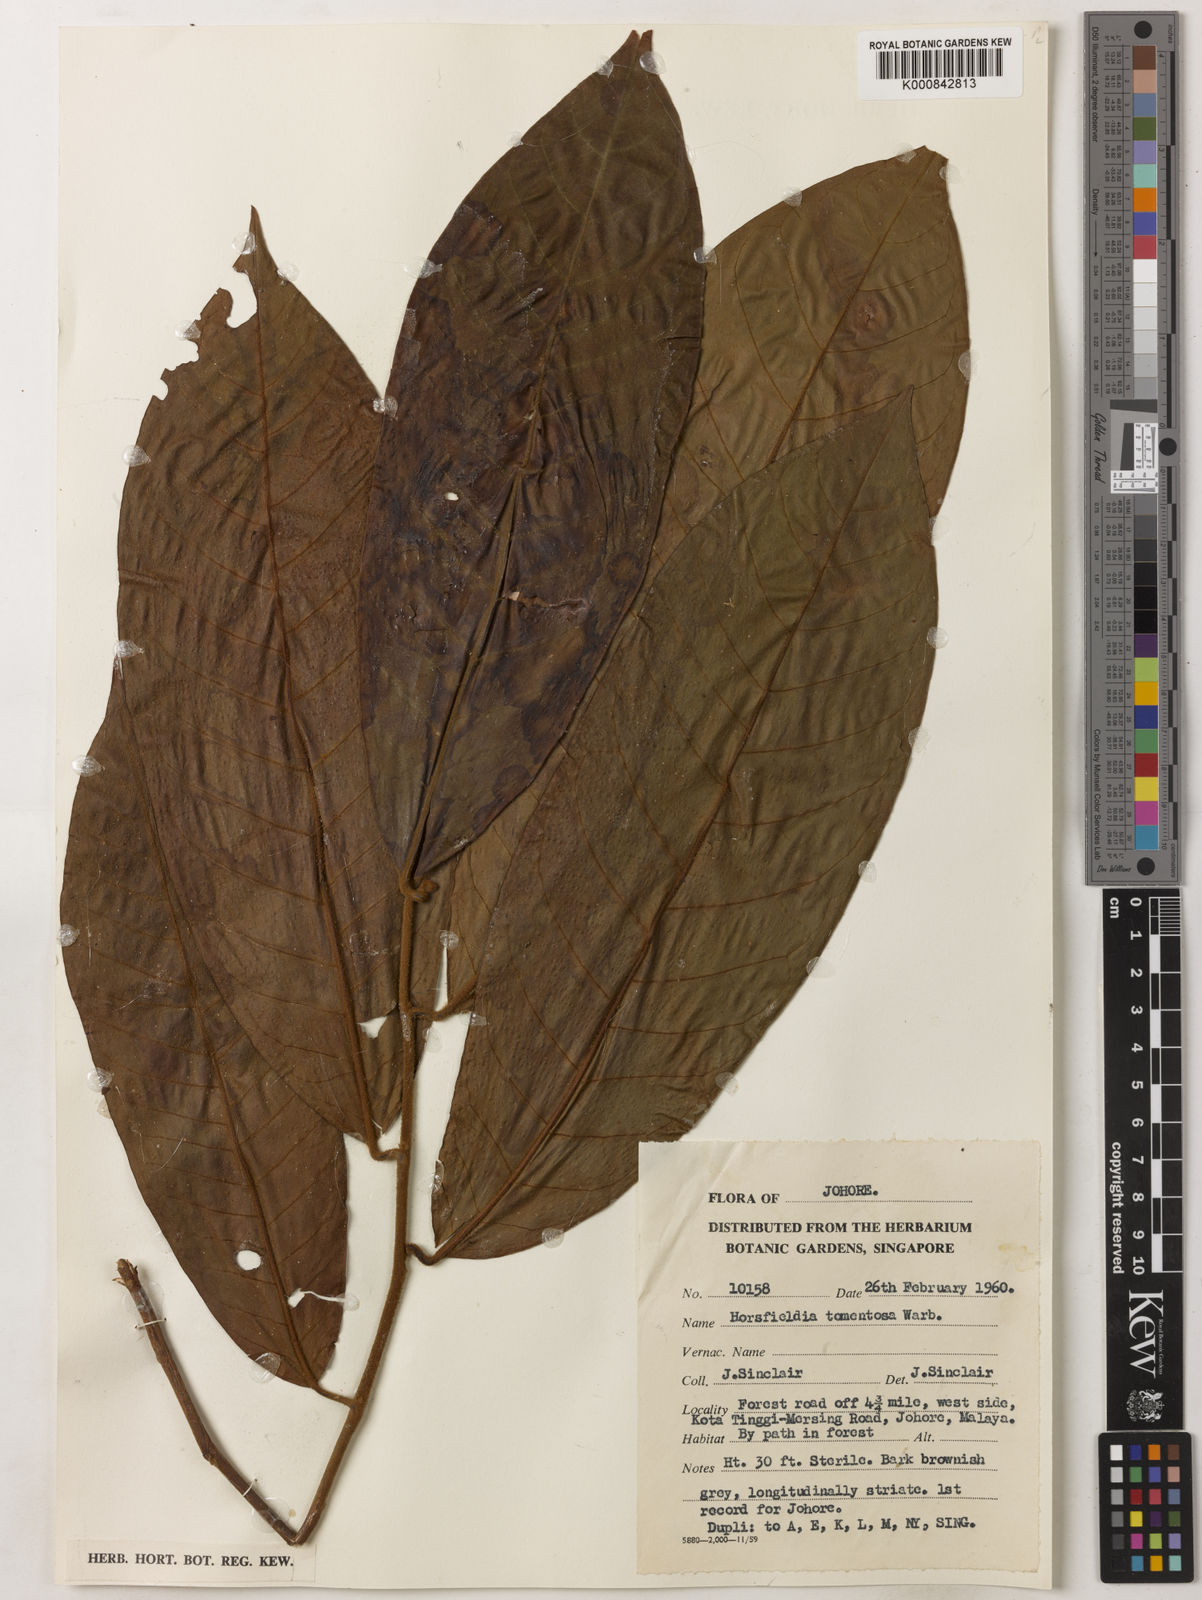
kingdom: Plantae
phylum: Tracheophyta
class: Magnoliopsida
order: Magnoliales
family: Myristicaceae
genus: Horsfieldia
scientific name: Horsfieldia tomentosa
